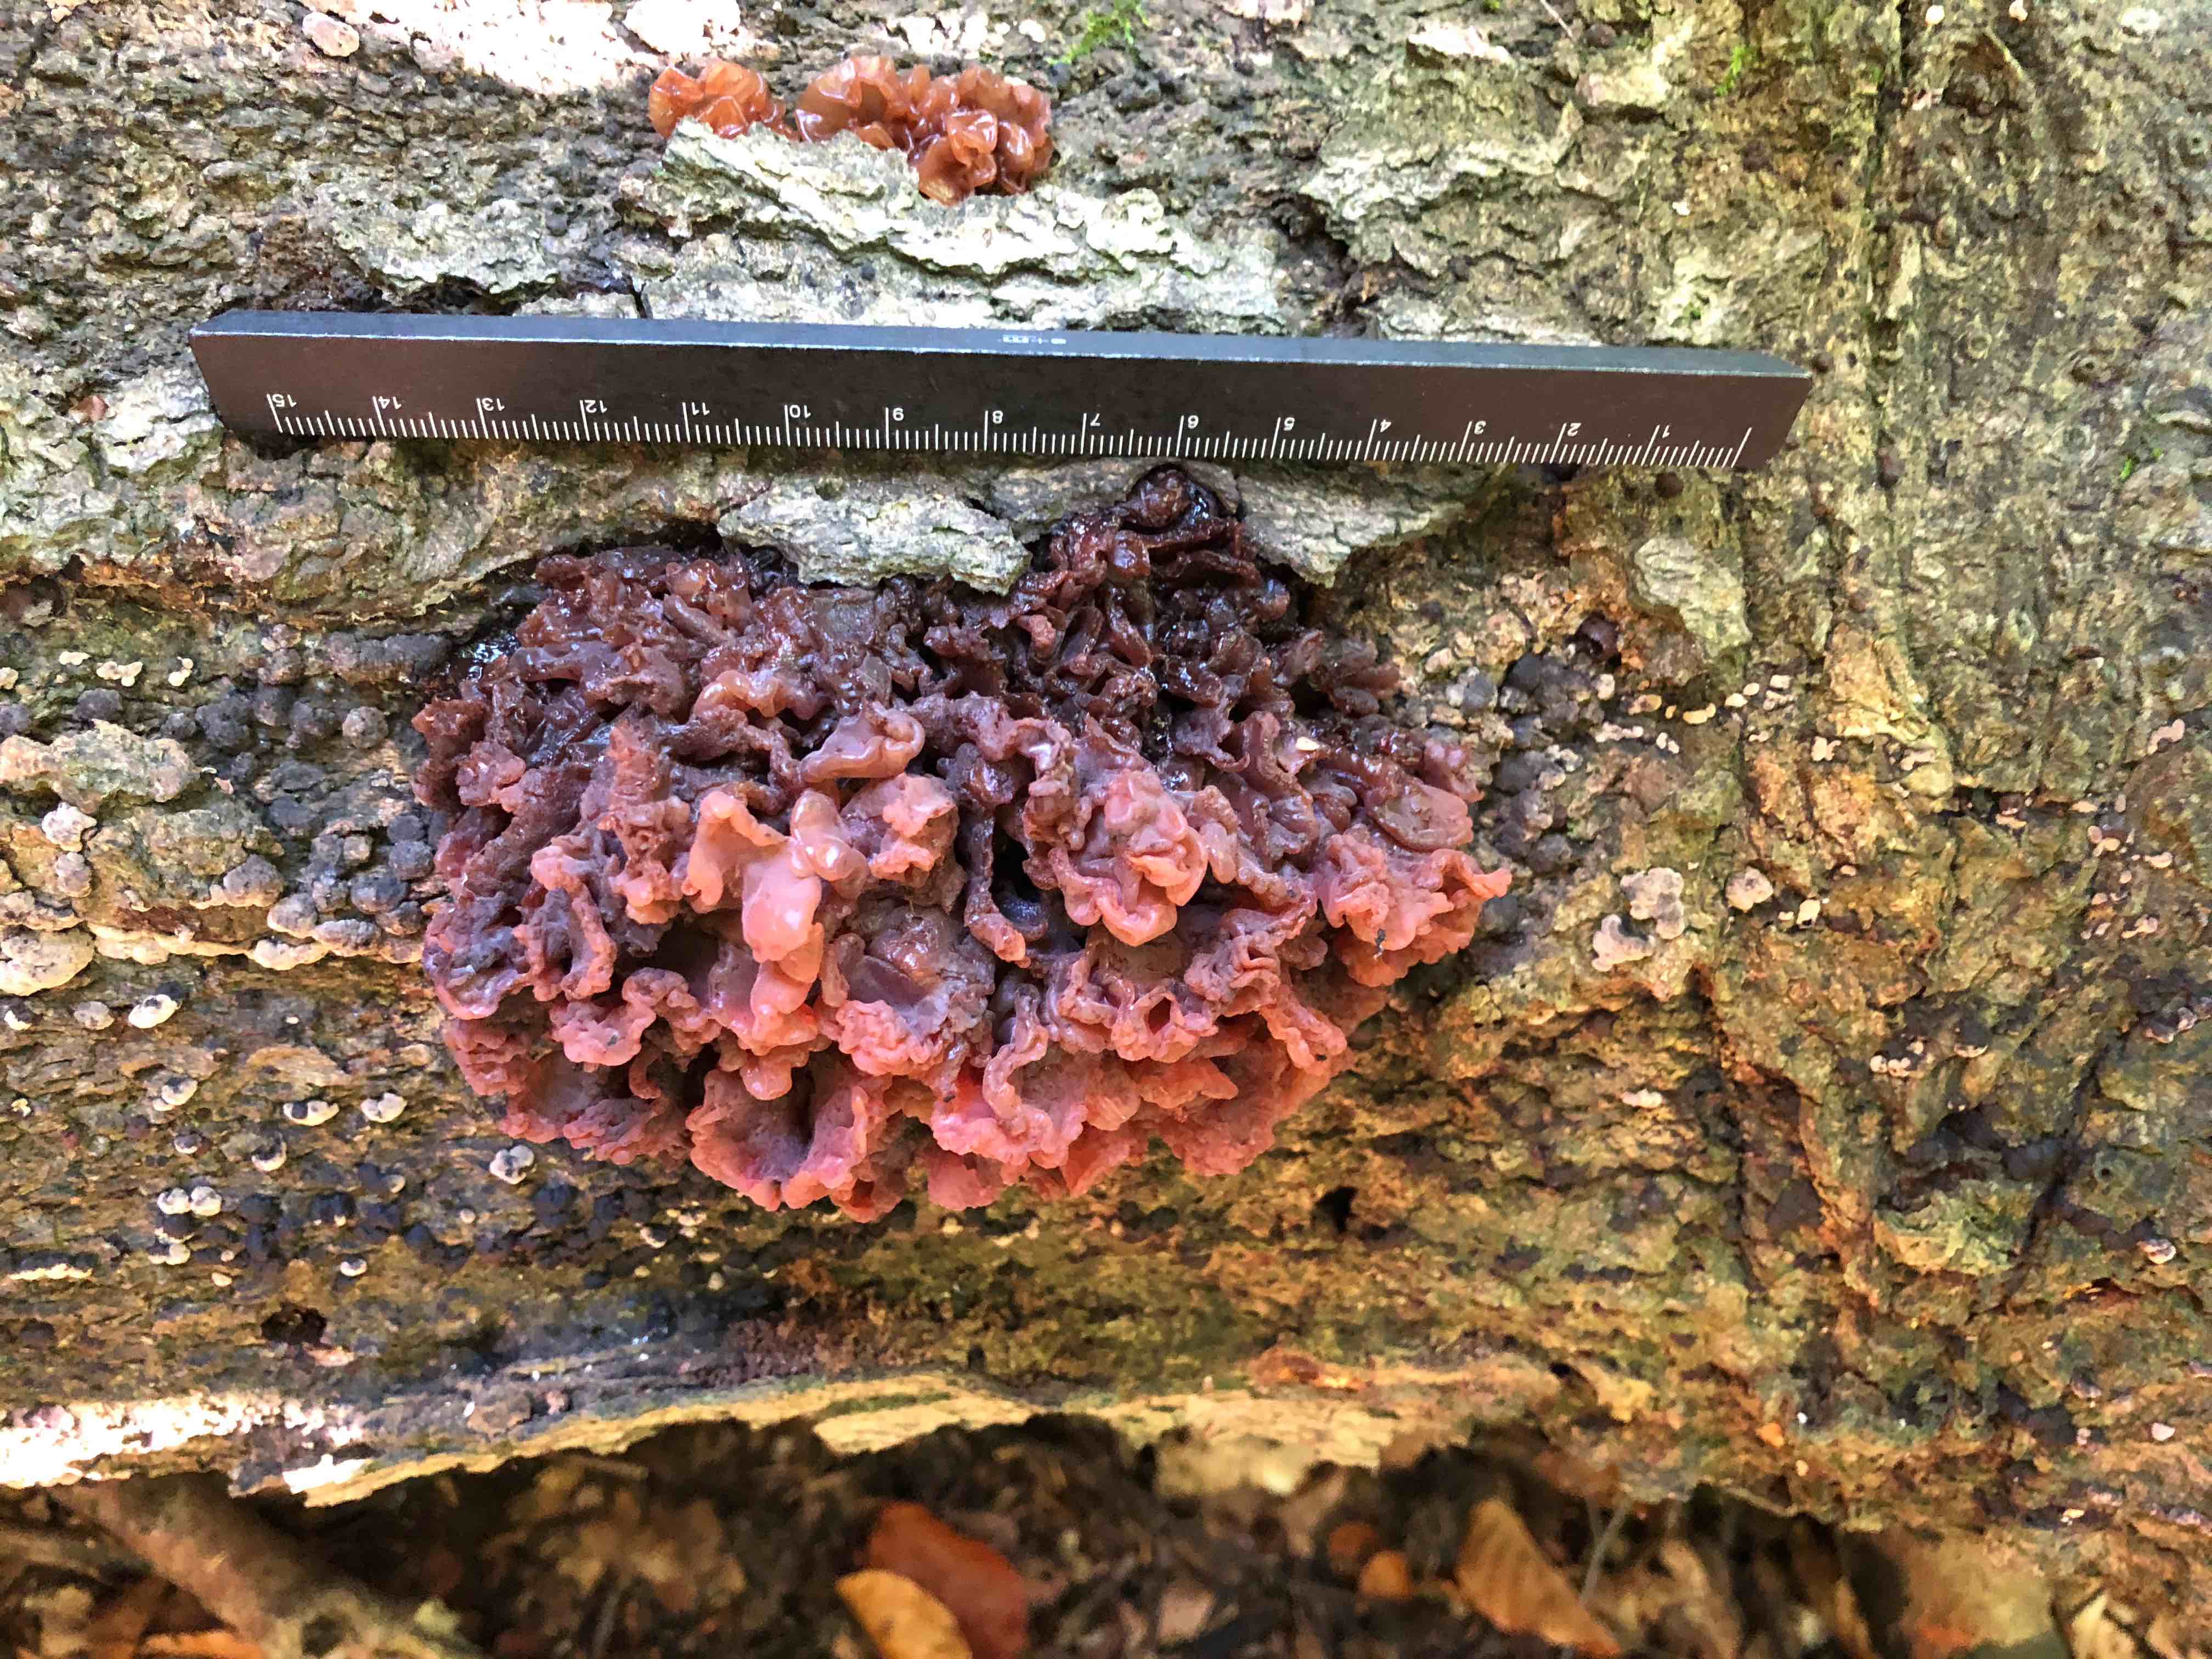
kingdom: Fungi
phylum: Basidiomycota
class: Tremellomycetes
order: Tremellales
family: Tremellaceae
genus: Phaeotremella
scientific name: Phaeotremella frondosa
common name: kæmpe-bævresvamp
